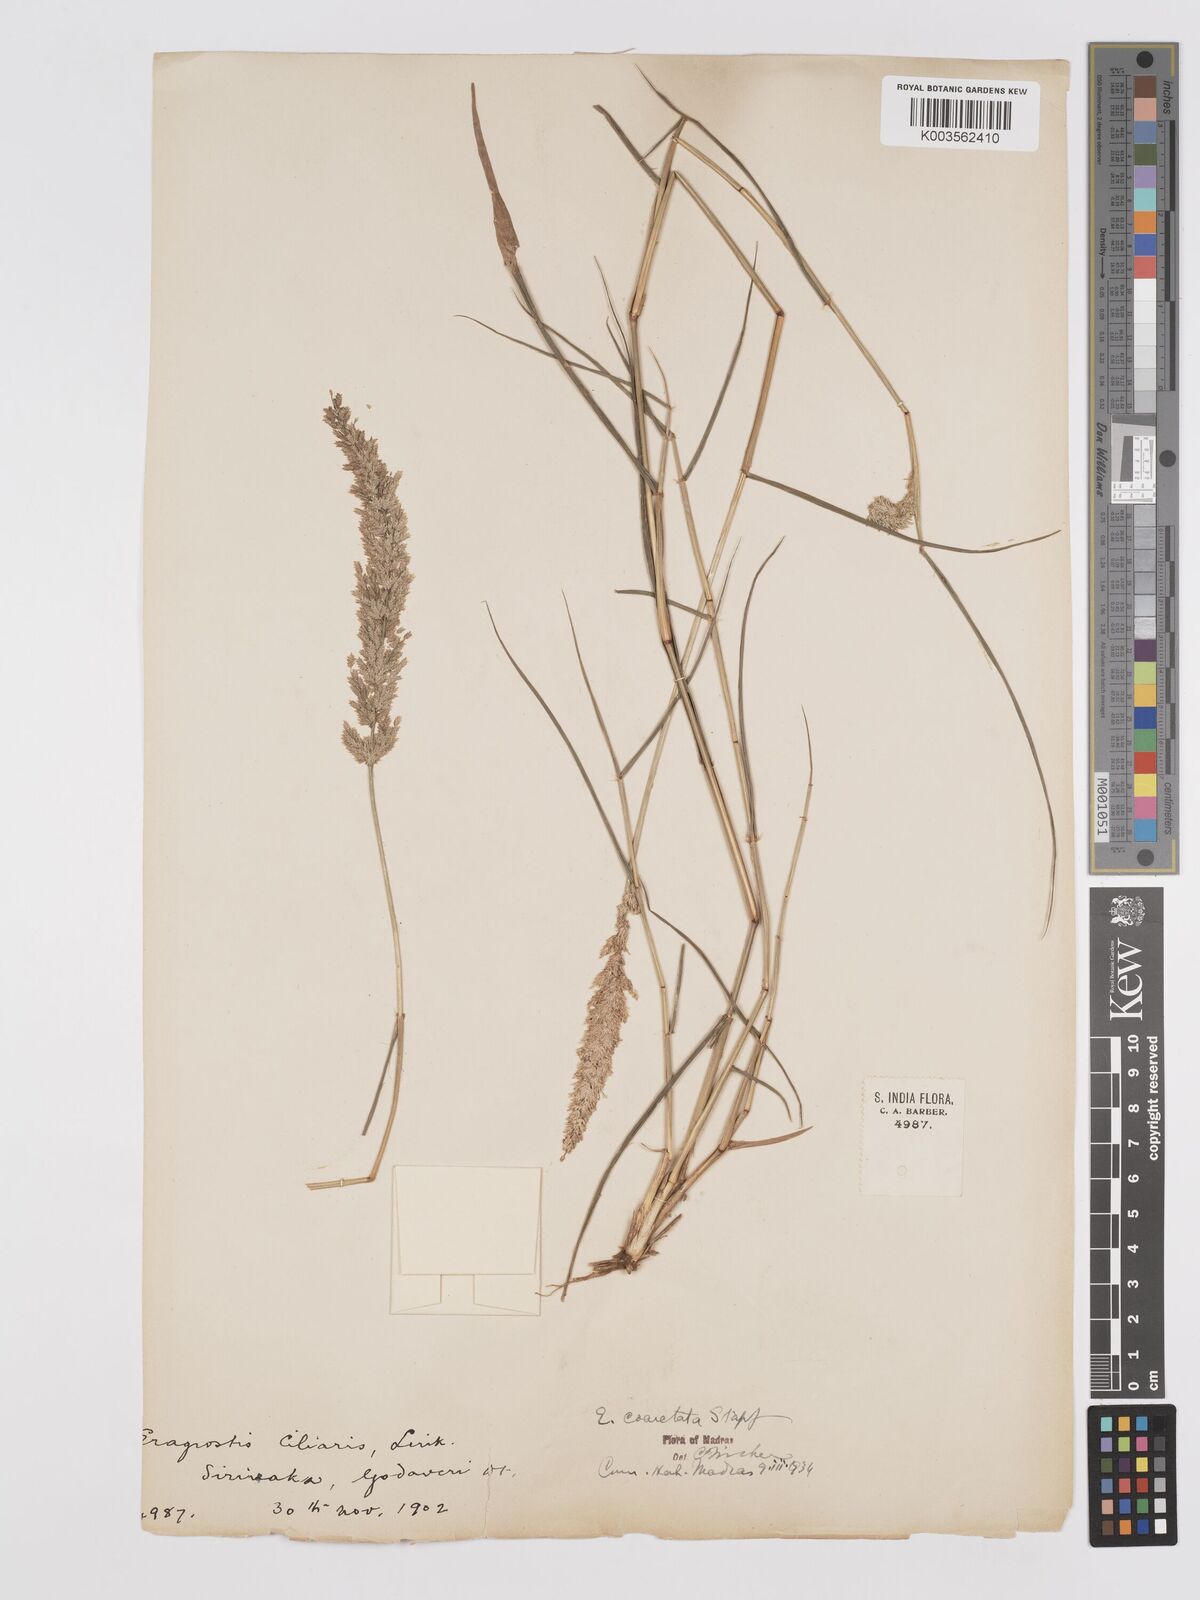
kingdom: Plantae
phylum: Tracheophyta
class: Liliopsida
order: Poales
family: Poaceae
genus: Eragrostis
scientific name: Eragrostis coarctata
